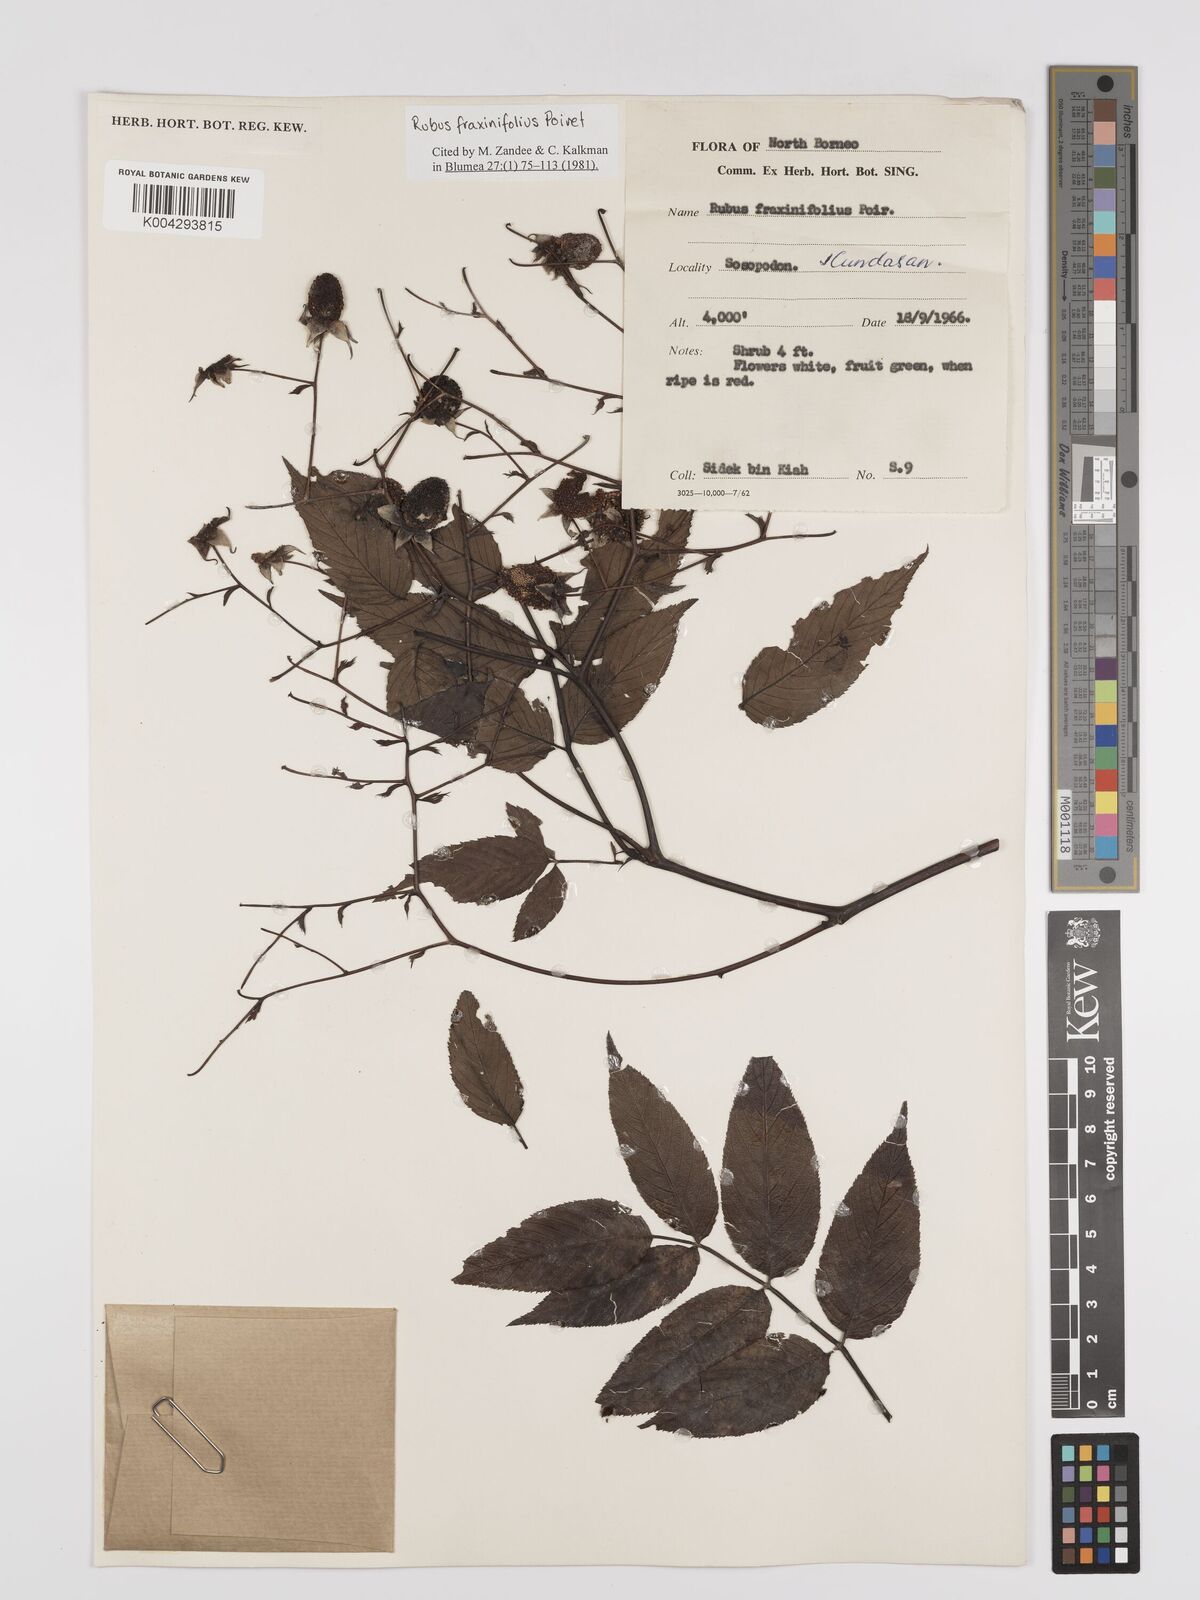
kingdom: Plantae
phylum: Tracheophyta
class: Magnoliopsida
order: Rosales
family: Rosaceae
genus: Rubus
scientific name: Rubus fraxinifolius
